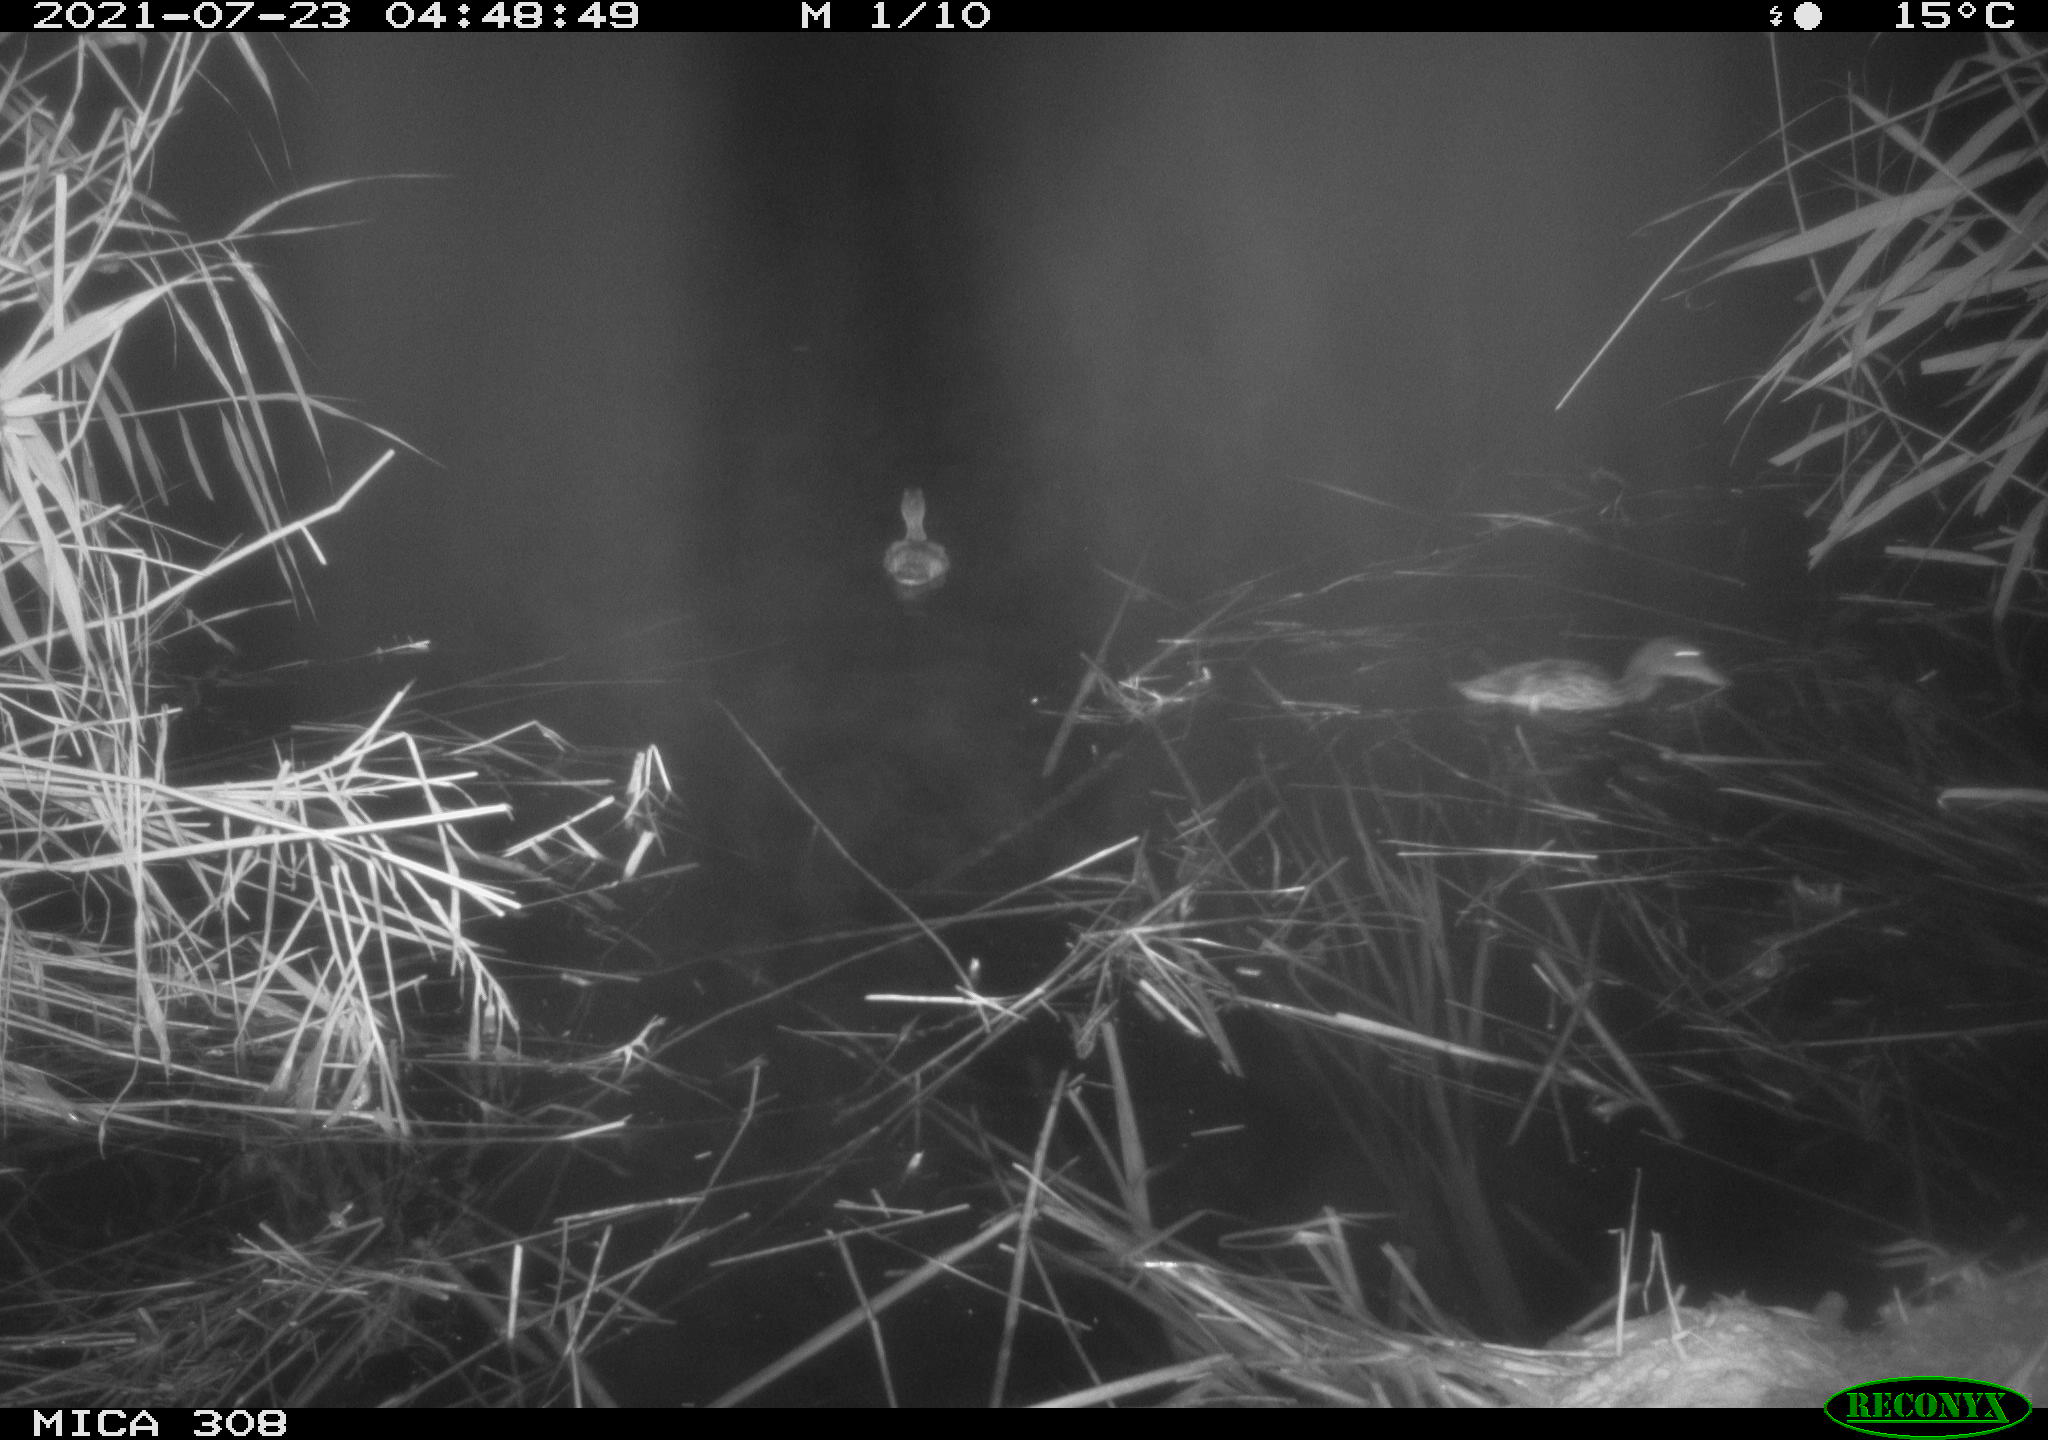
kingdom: Animalia
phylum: Chordata
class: Aves
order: Anseriformes
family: Anatidae
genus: Anas
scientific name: Anas platyrhynchos
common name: Mallard
